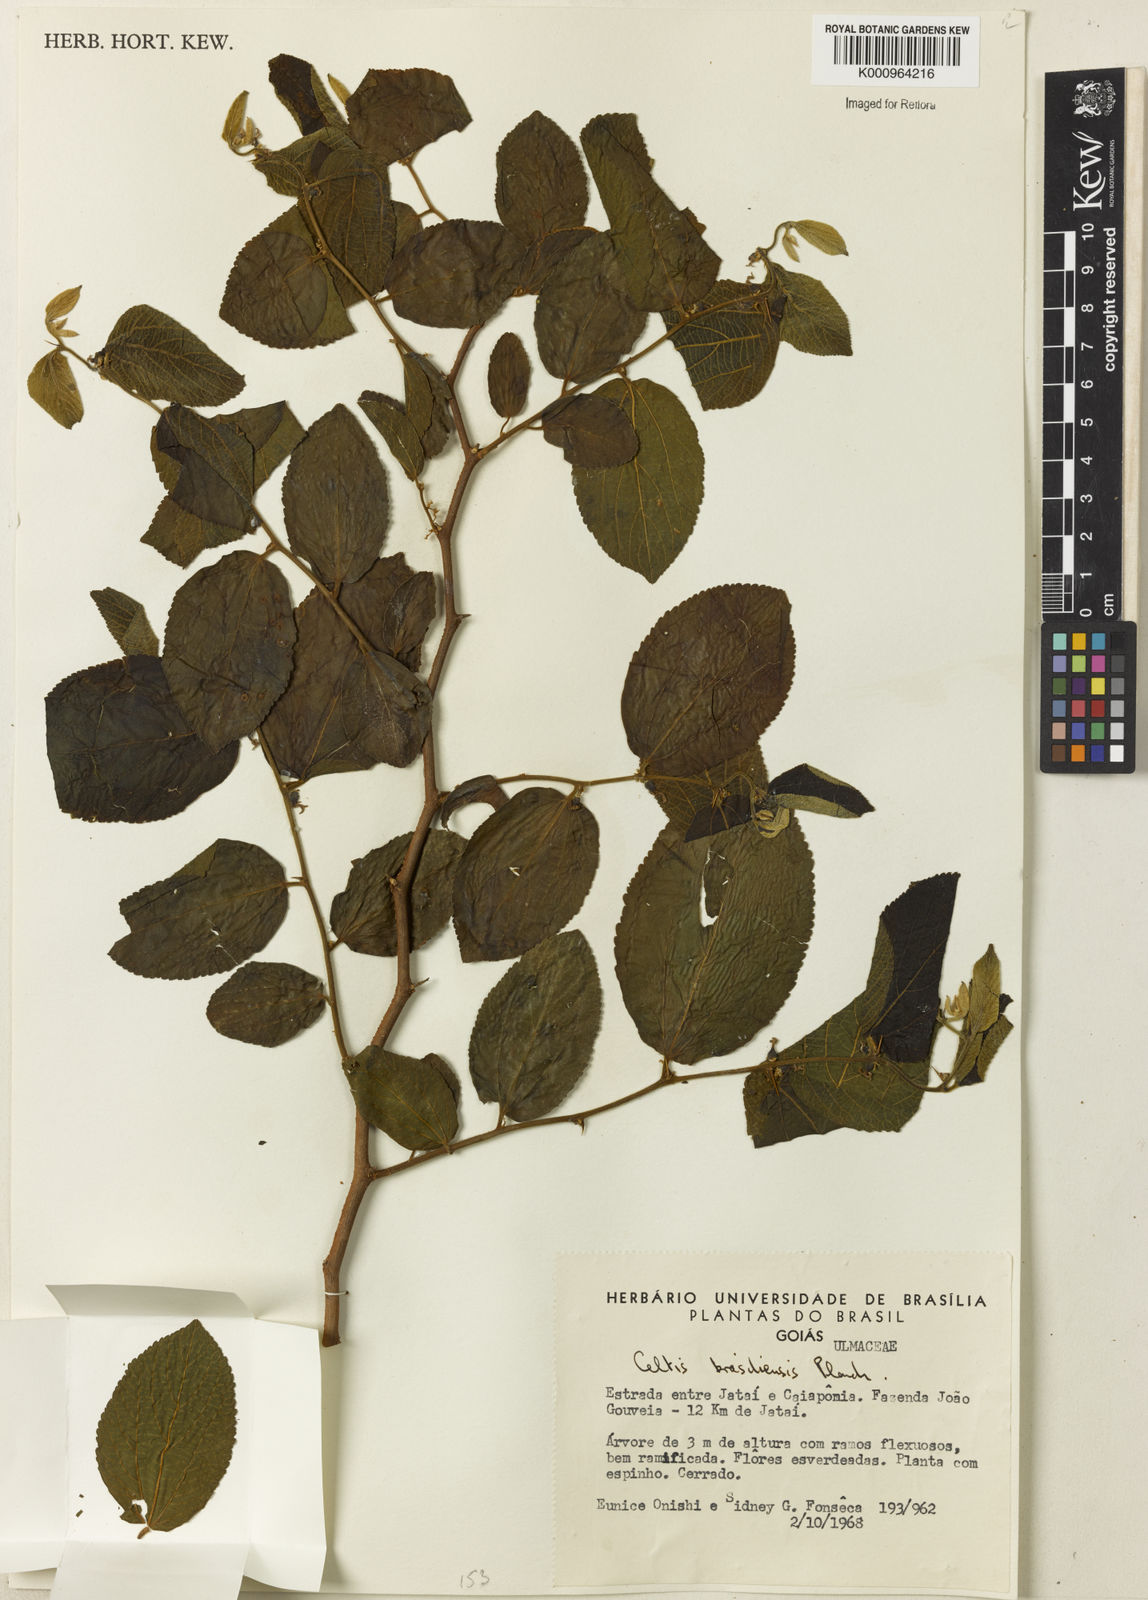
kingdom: Plantae
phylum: Tracheophyta
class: Magnoliopsida
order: Rosales
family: Cannabaceae
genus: Celtis
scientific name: Celtis brasiliensis
